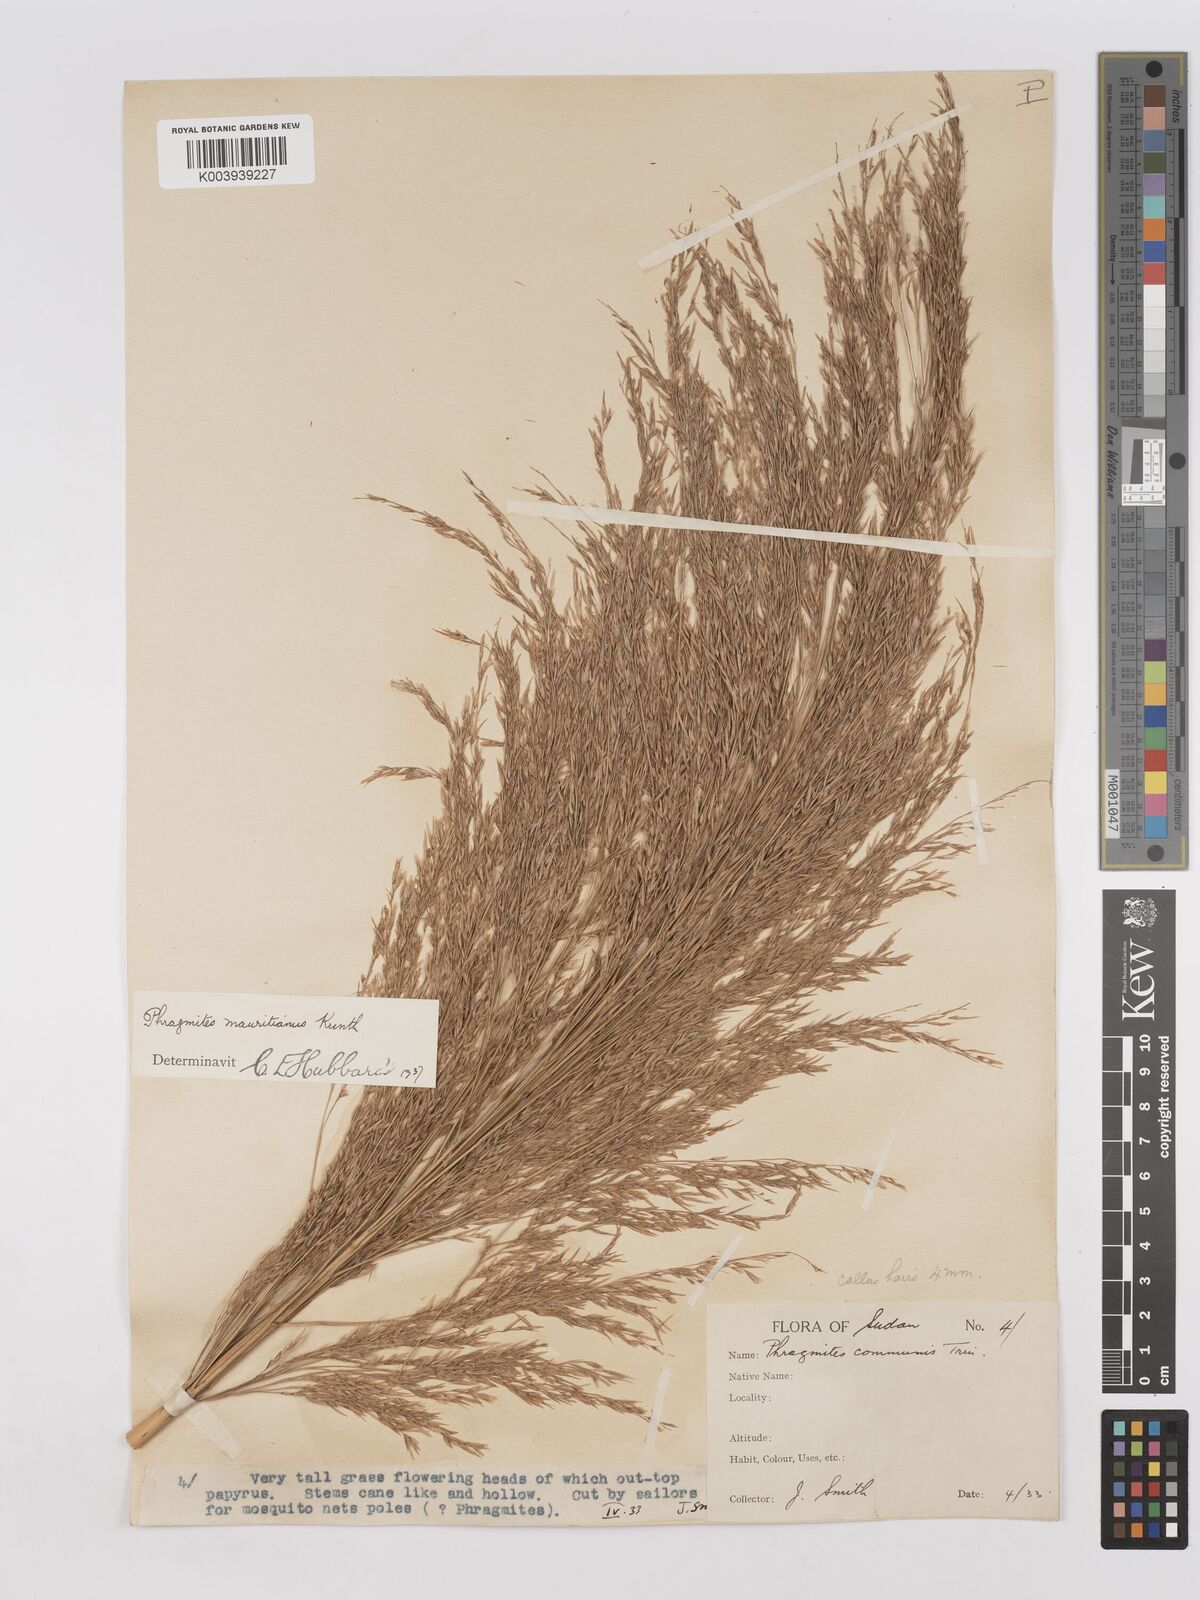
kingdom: Plantae
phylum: Tracheophyta
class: Liliopsida
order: Poales
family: Poaceae
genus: Phragmites
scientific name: Phragmites mauritianus
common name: Reed grass
